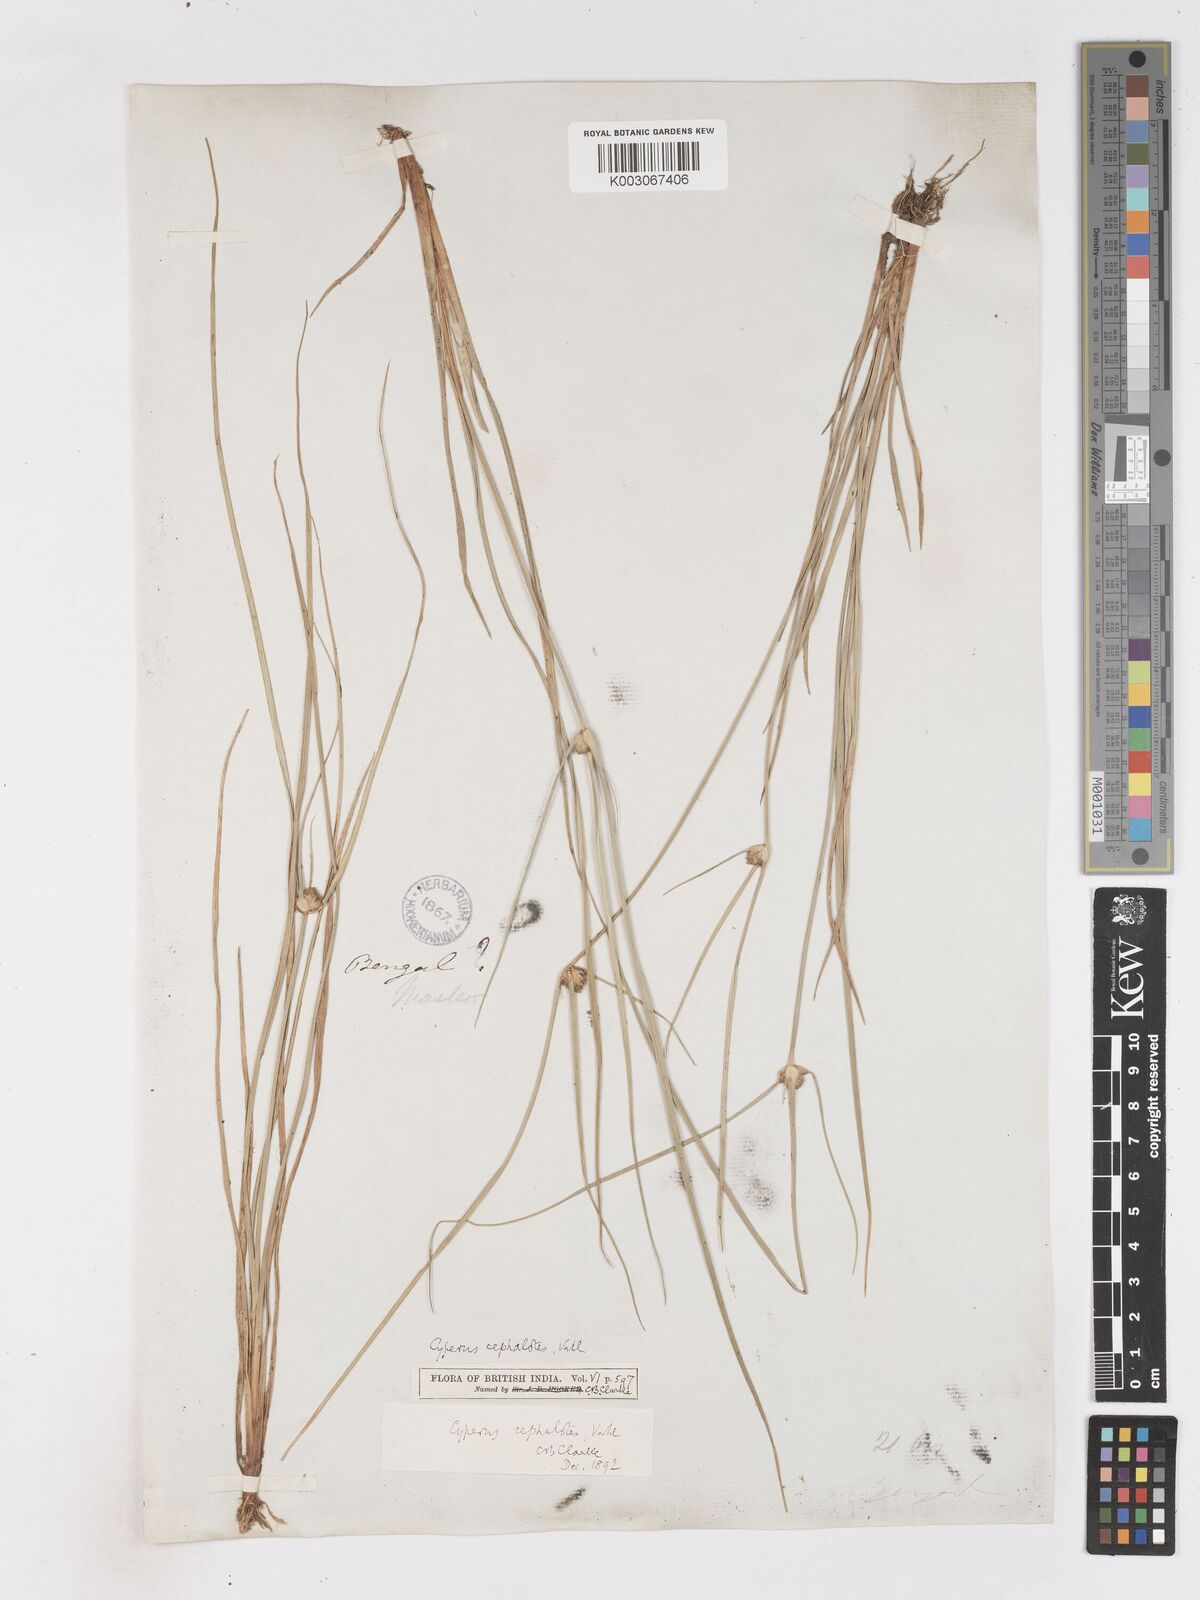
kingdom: Plantae
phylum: Tracheophyta
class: Liliopsida
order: Poales
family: Cyperaceae
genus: Cyperus
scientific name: Cyperus cephalotes
